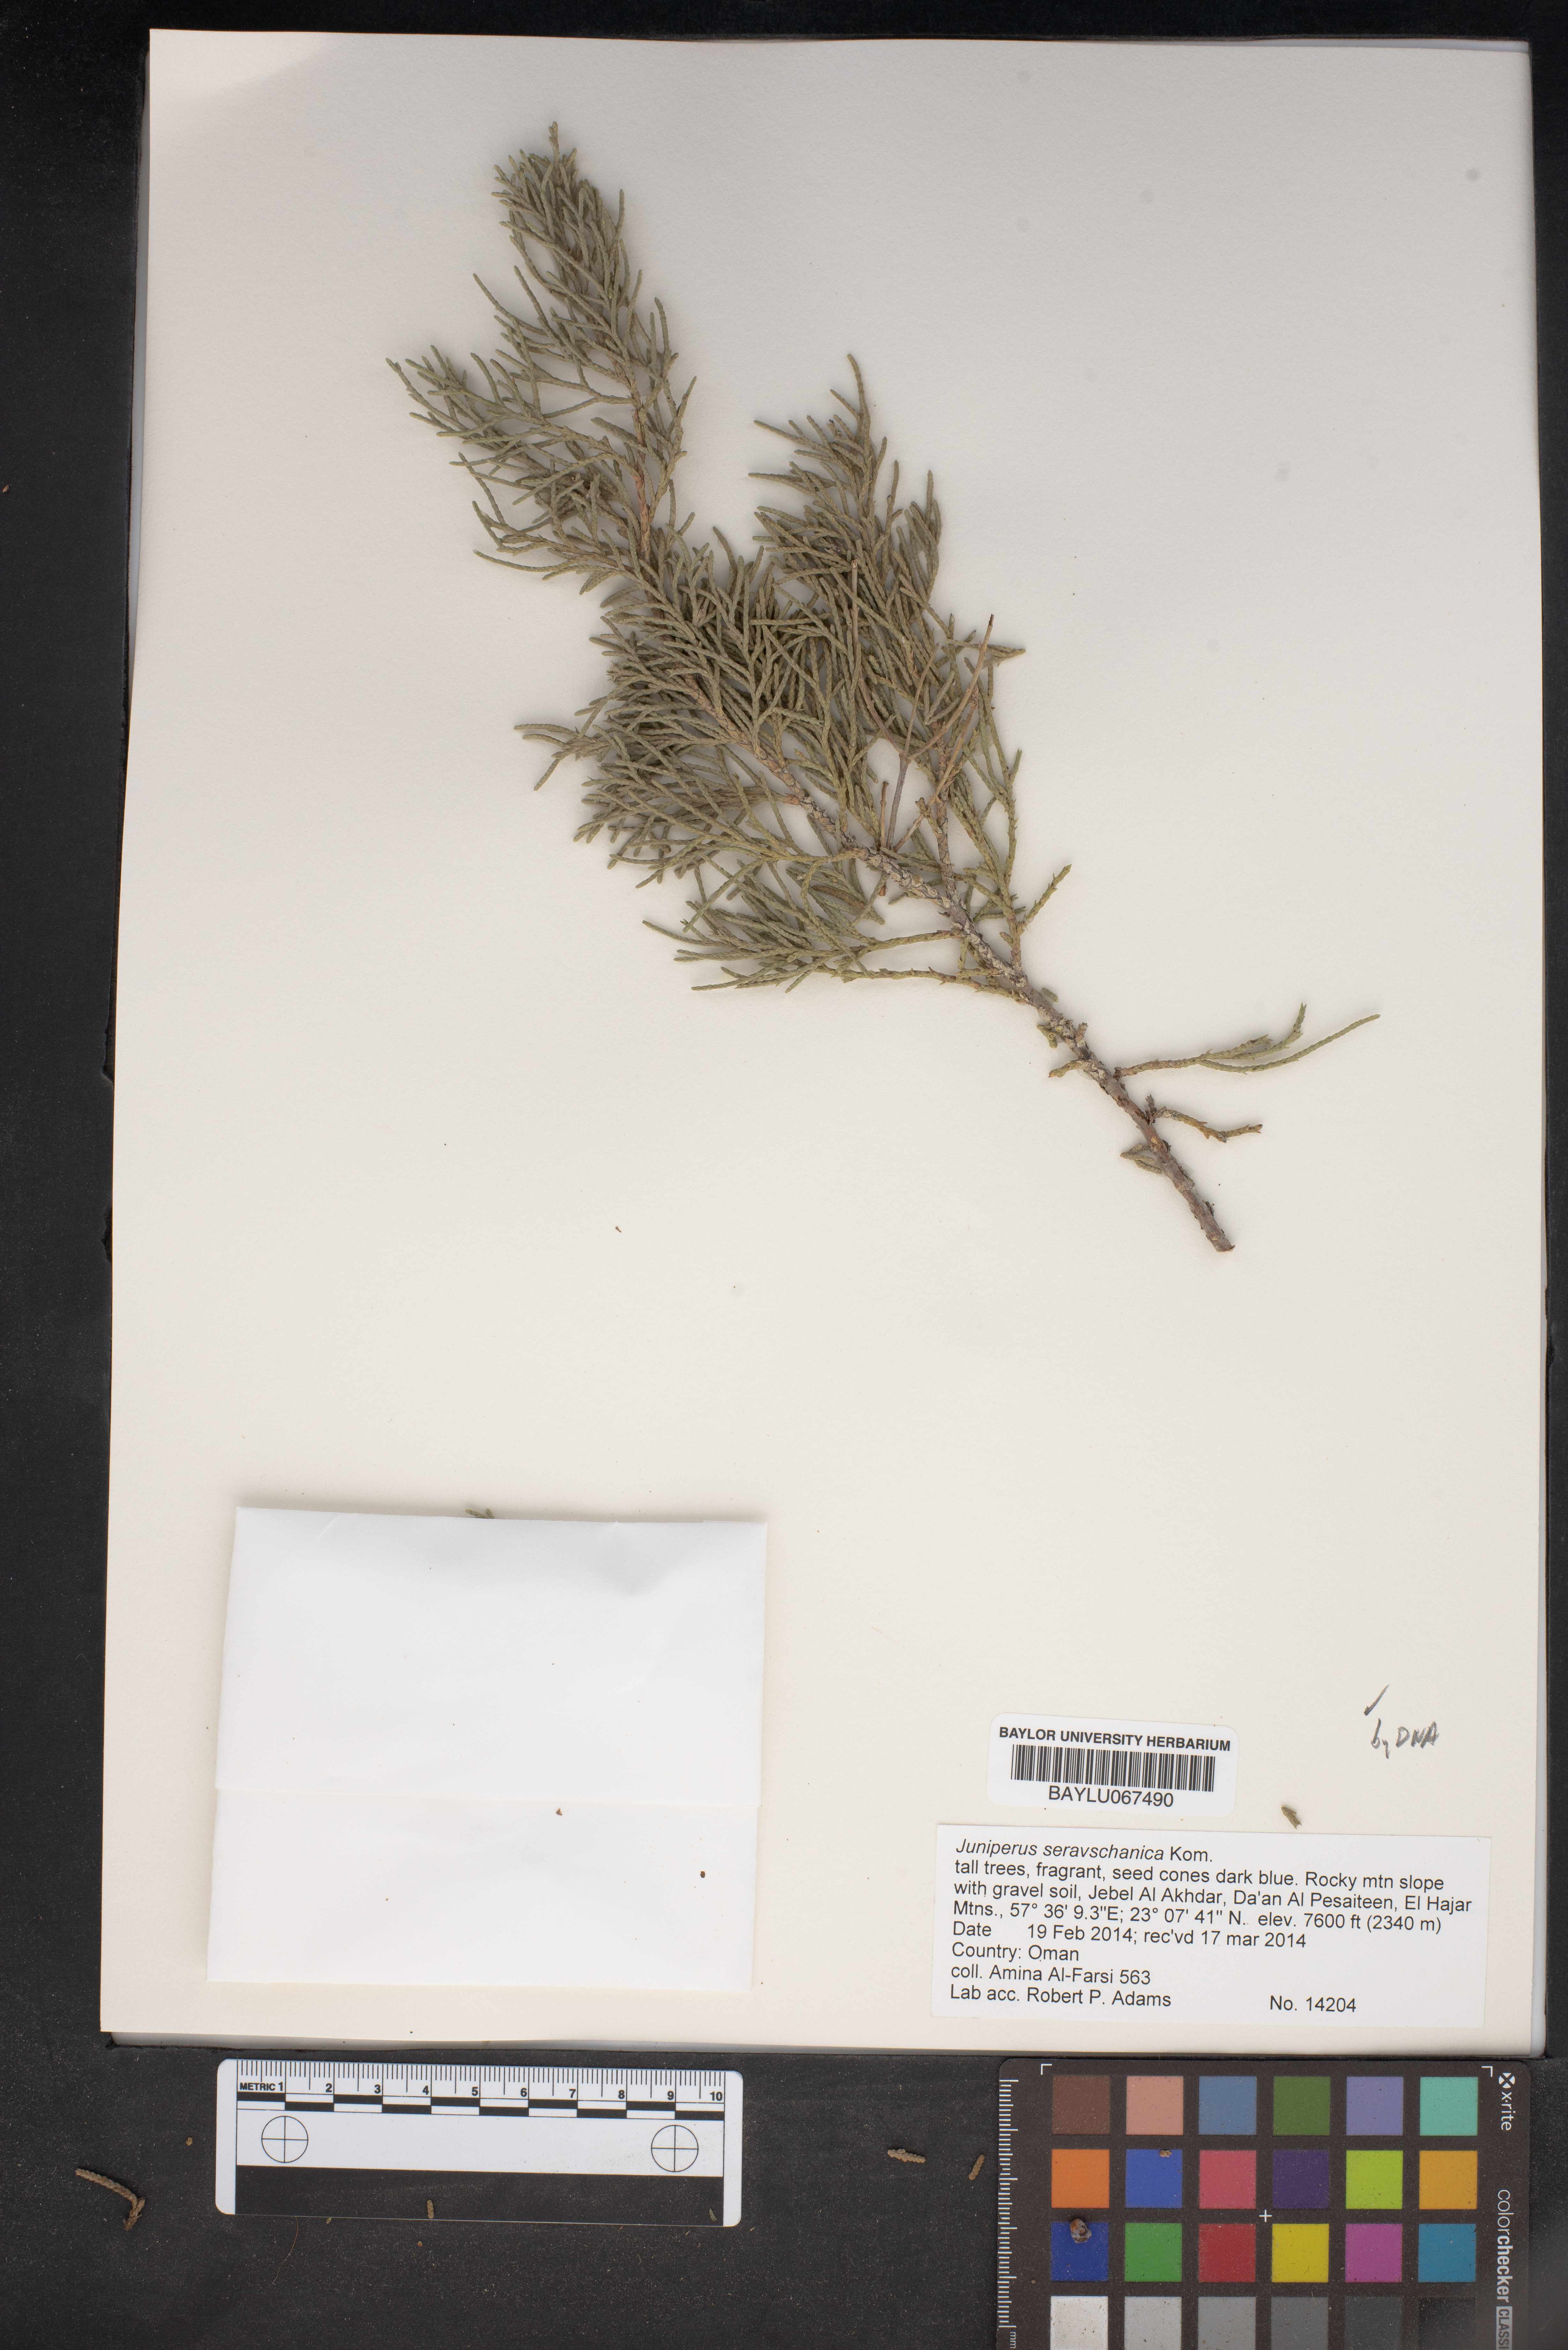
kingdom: Plantae
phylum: Tracheophyta
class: Pinopsida
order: Pinales
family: Cupressaceae
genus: Juniperus
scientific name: Juniperus excelsa
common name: Crimean juniper
